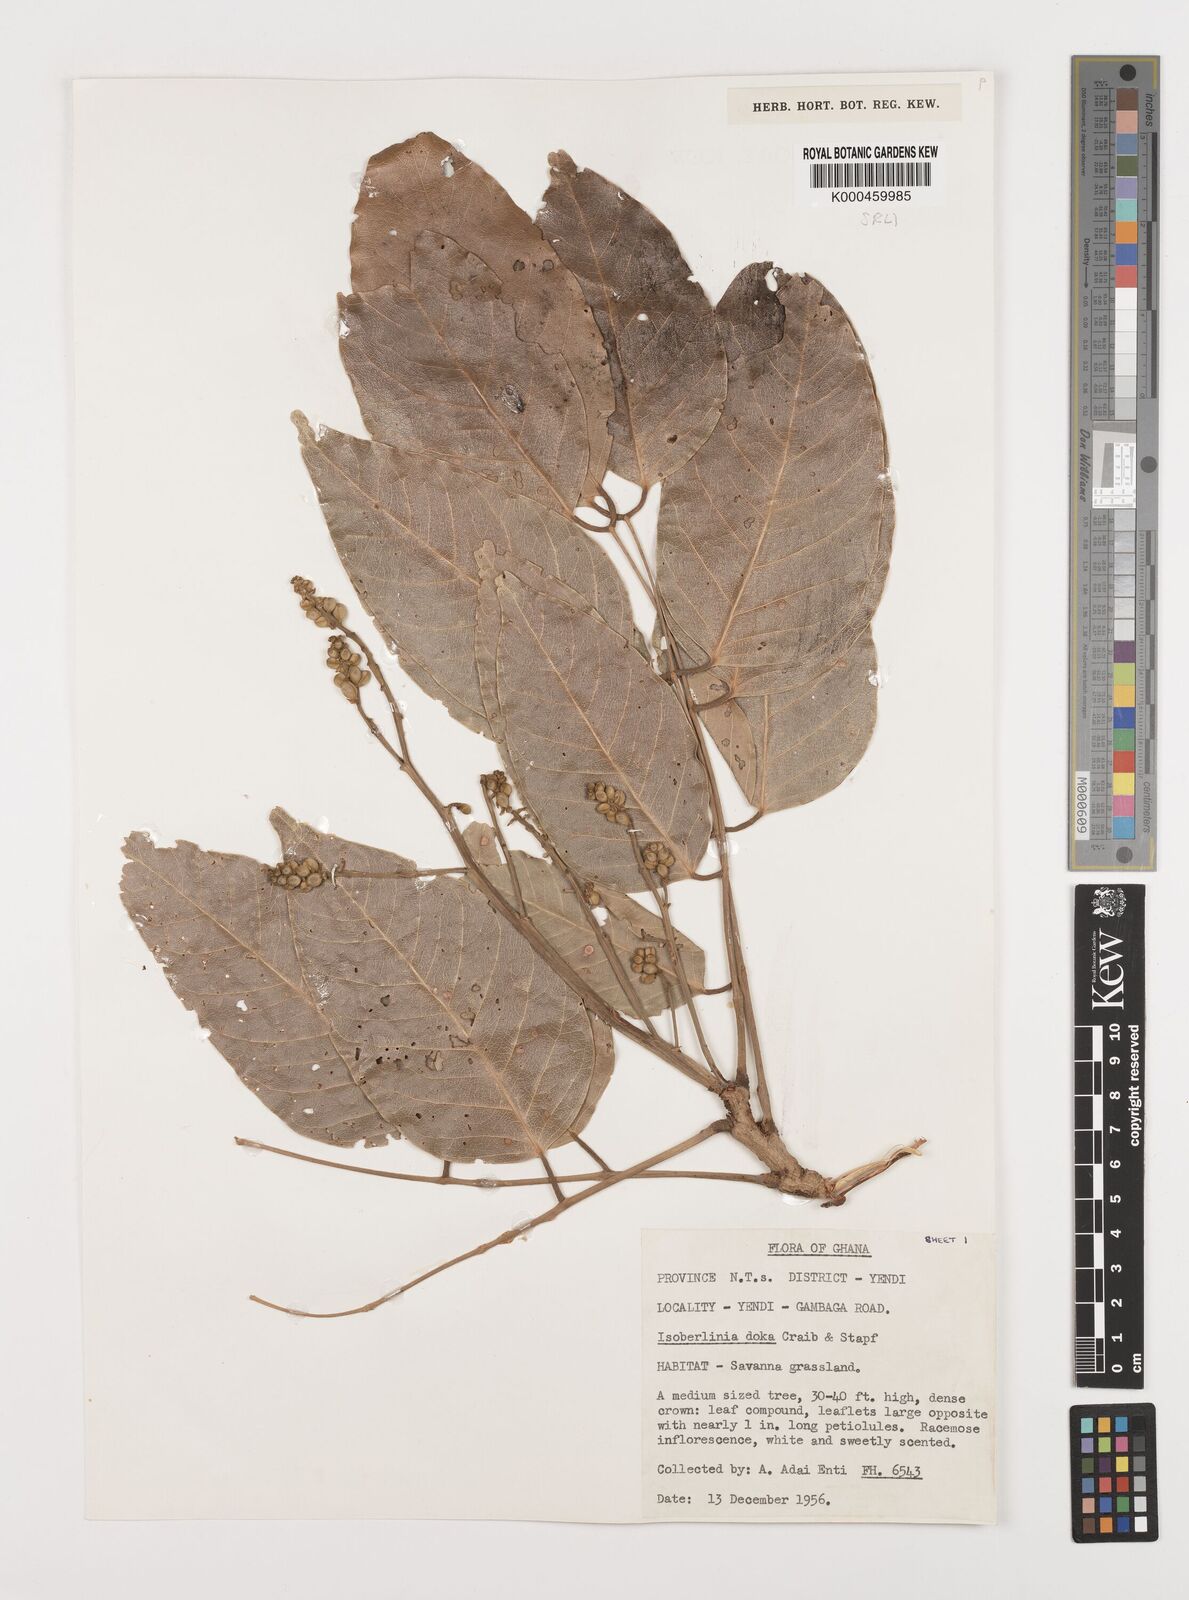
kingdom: Plantae
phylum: Tracheophyta
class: Magnoliopsida
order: Fabales
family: Fabaceae
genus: Isoberlinia
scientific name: Isoberlinia doka
